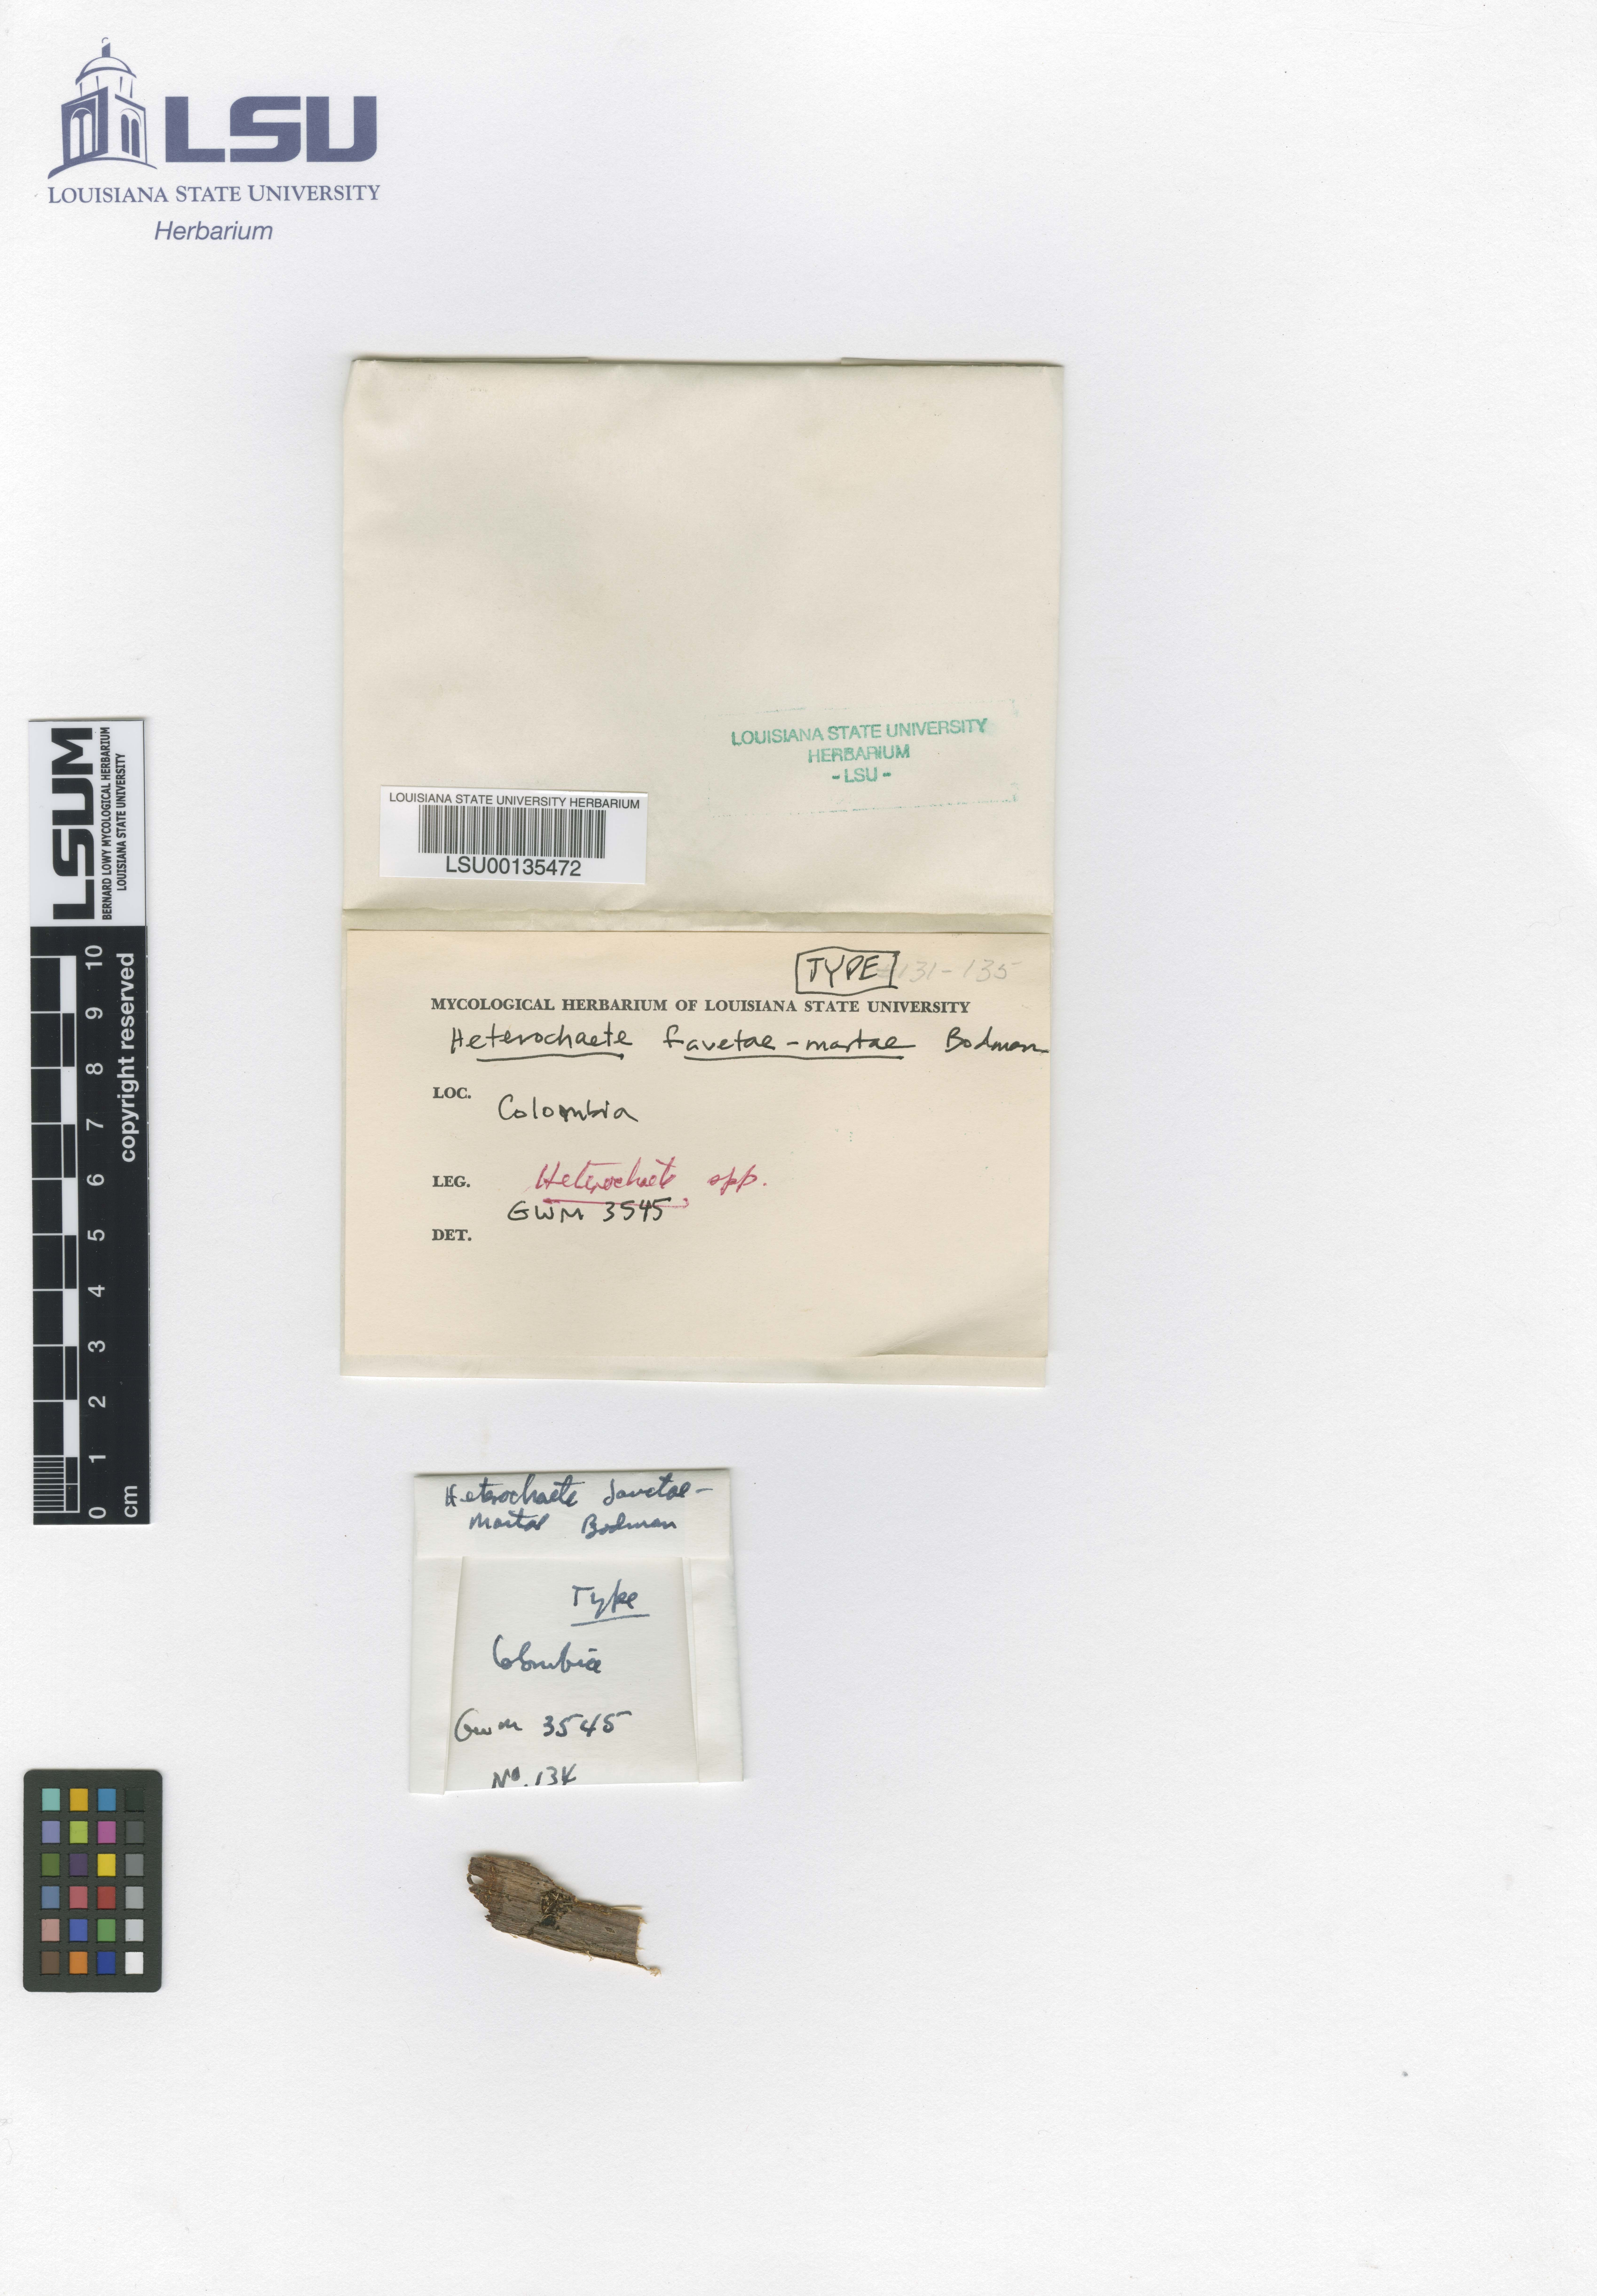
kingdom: Fungi
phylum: Basidiomycota
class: Agaricomycetes
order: Auriculariales
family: Auriculariaceae
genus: Heterochaete
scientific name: Heterochaete sanctae-martae
